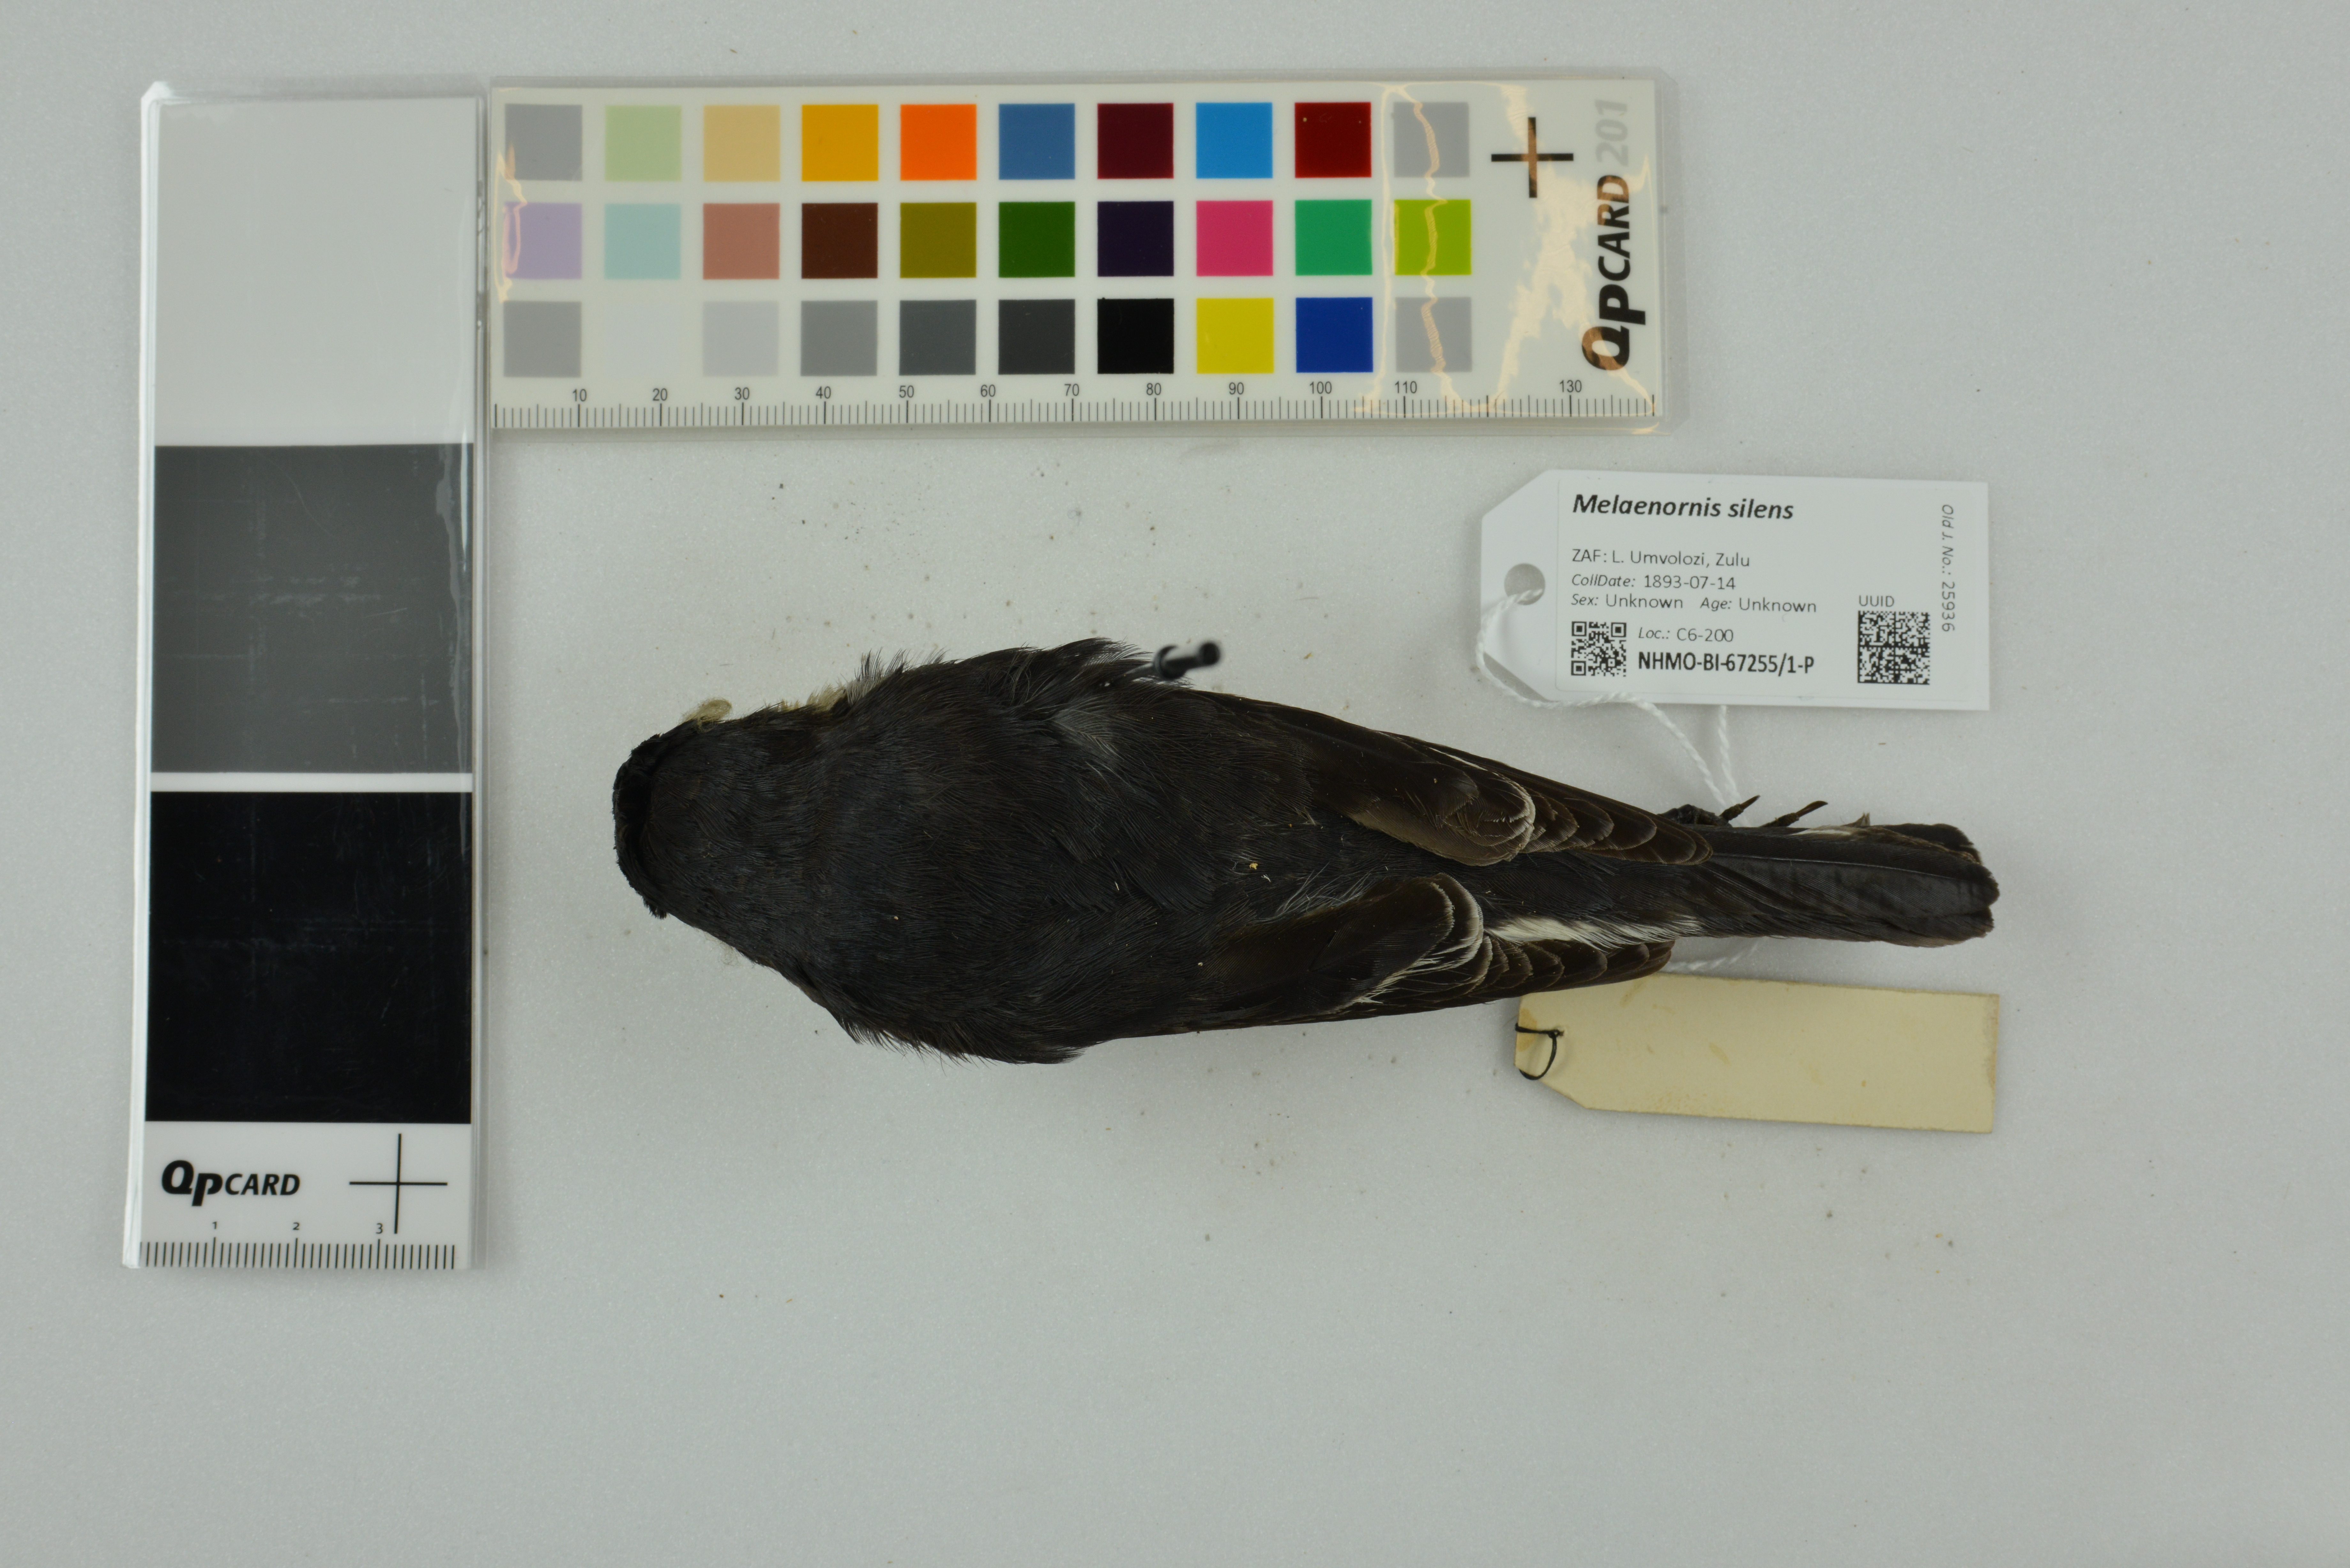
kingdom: Animalia
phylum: Chordata
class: Aves
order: Passeriformes
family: Muscicapidae
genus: Sigelus
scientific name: Sigelus silens
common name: Fiscal flycatcher
